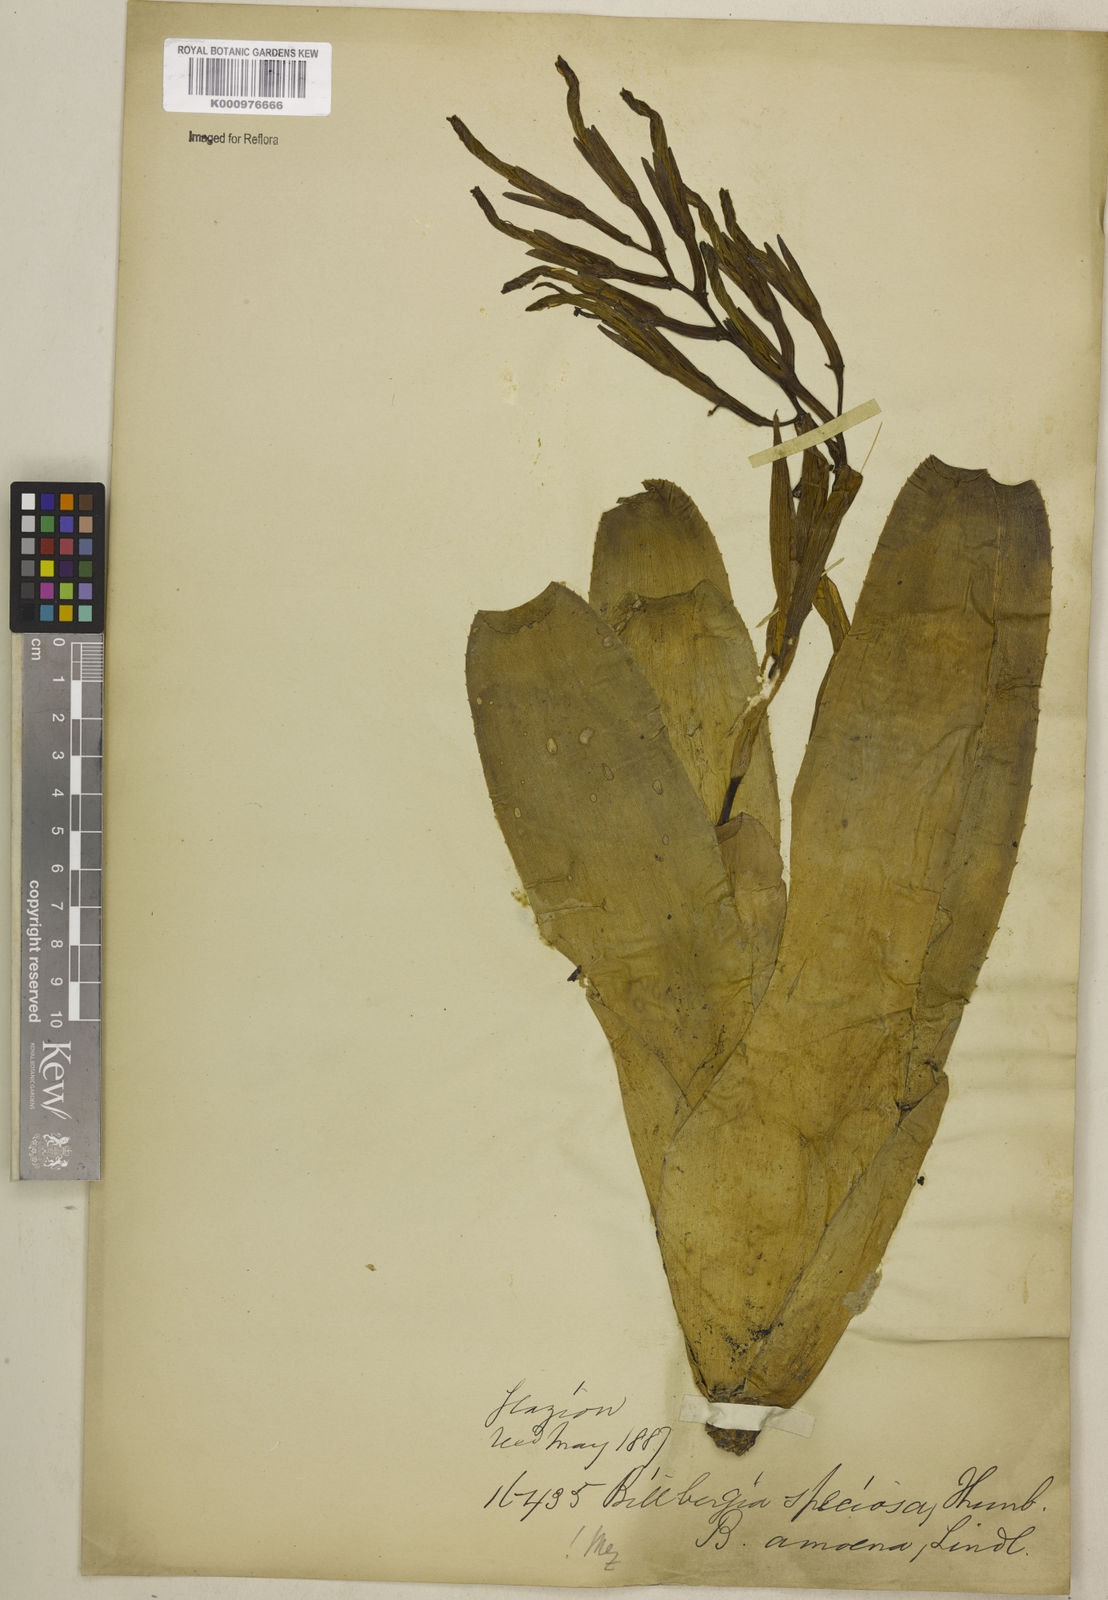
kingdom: Plantae
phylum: Tracheophyta
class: Liliopsida
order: Poales
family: Bromeliaceae
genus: Billbergia
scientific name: Billbergia amoena
